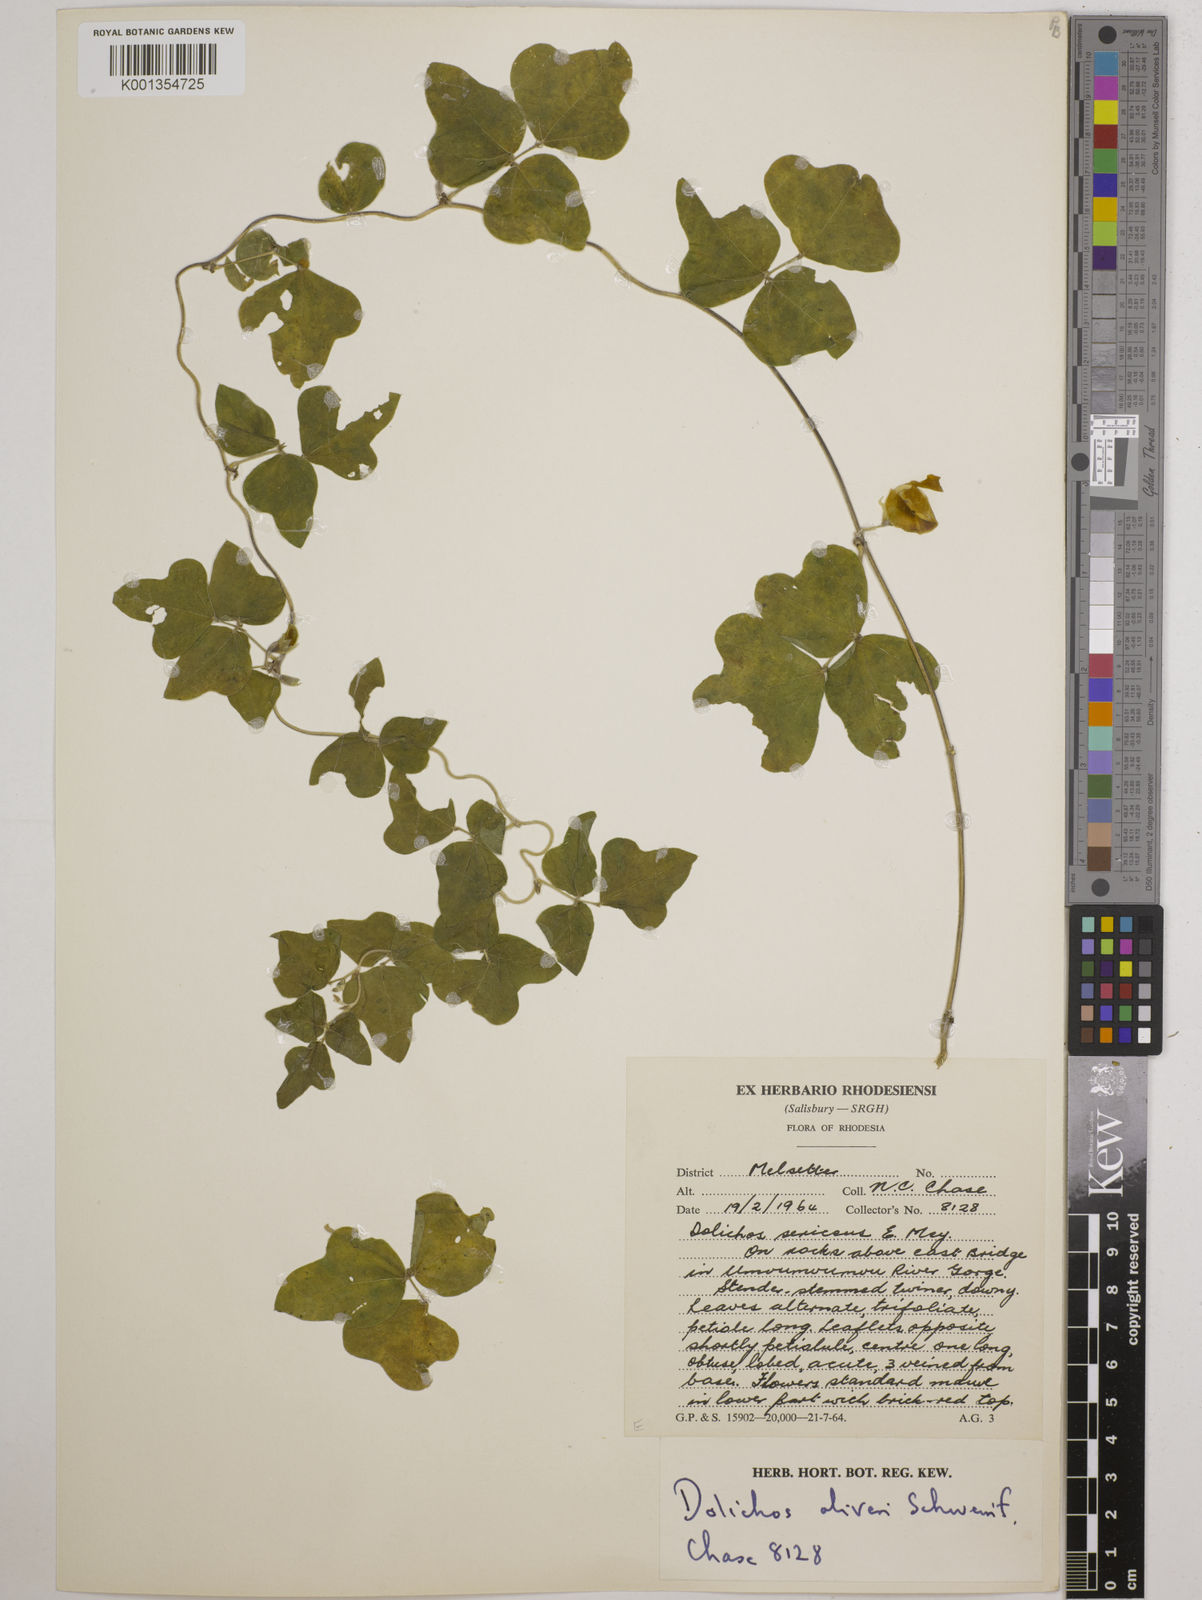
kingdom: Plantae
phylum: Tracheophyta
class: Magnoliopsida
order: Fabales
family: Fabaceae
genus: Dolichos
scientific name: Dolichos oliveri
